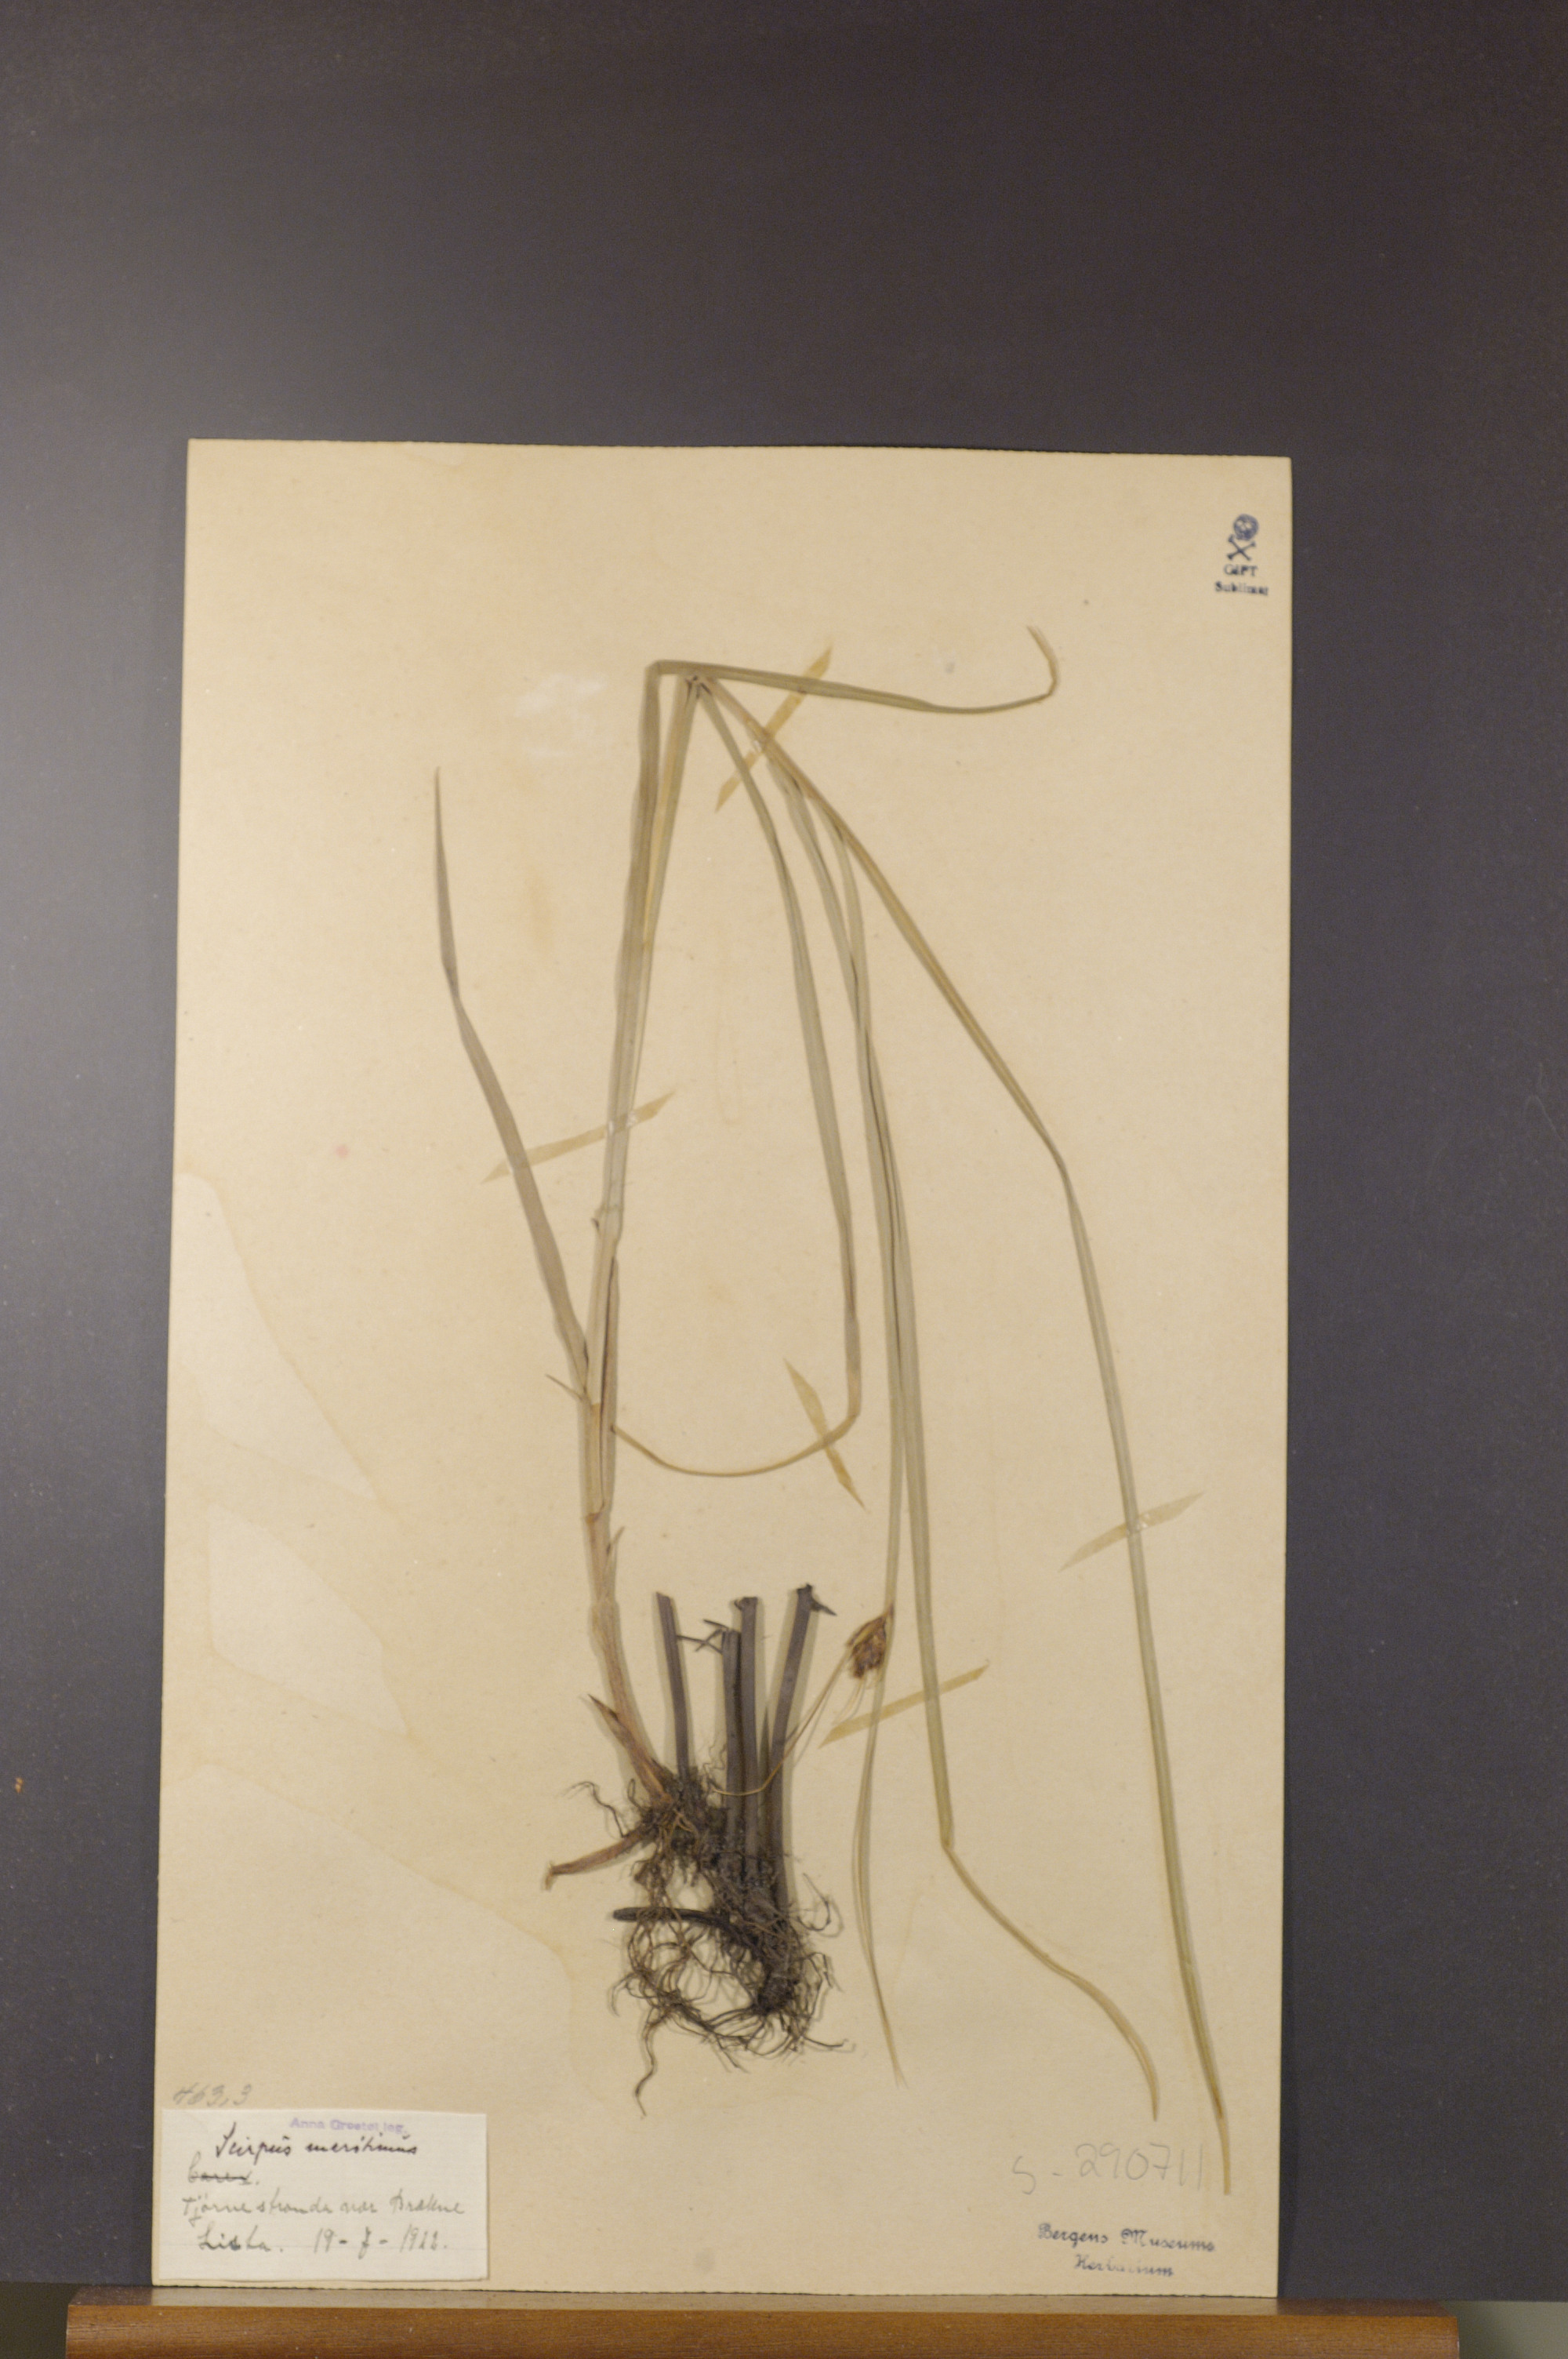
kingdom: Plantae
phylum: Tracheophyta
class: Liliopsida
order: Poales
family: Cyperaceae
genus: Bolboschoenus
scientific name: Bolboschoenus maritimus
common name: Sea club-rush
